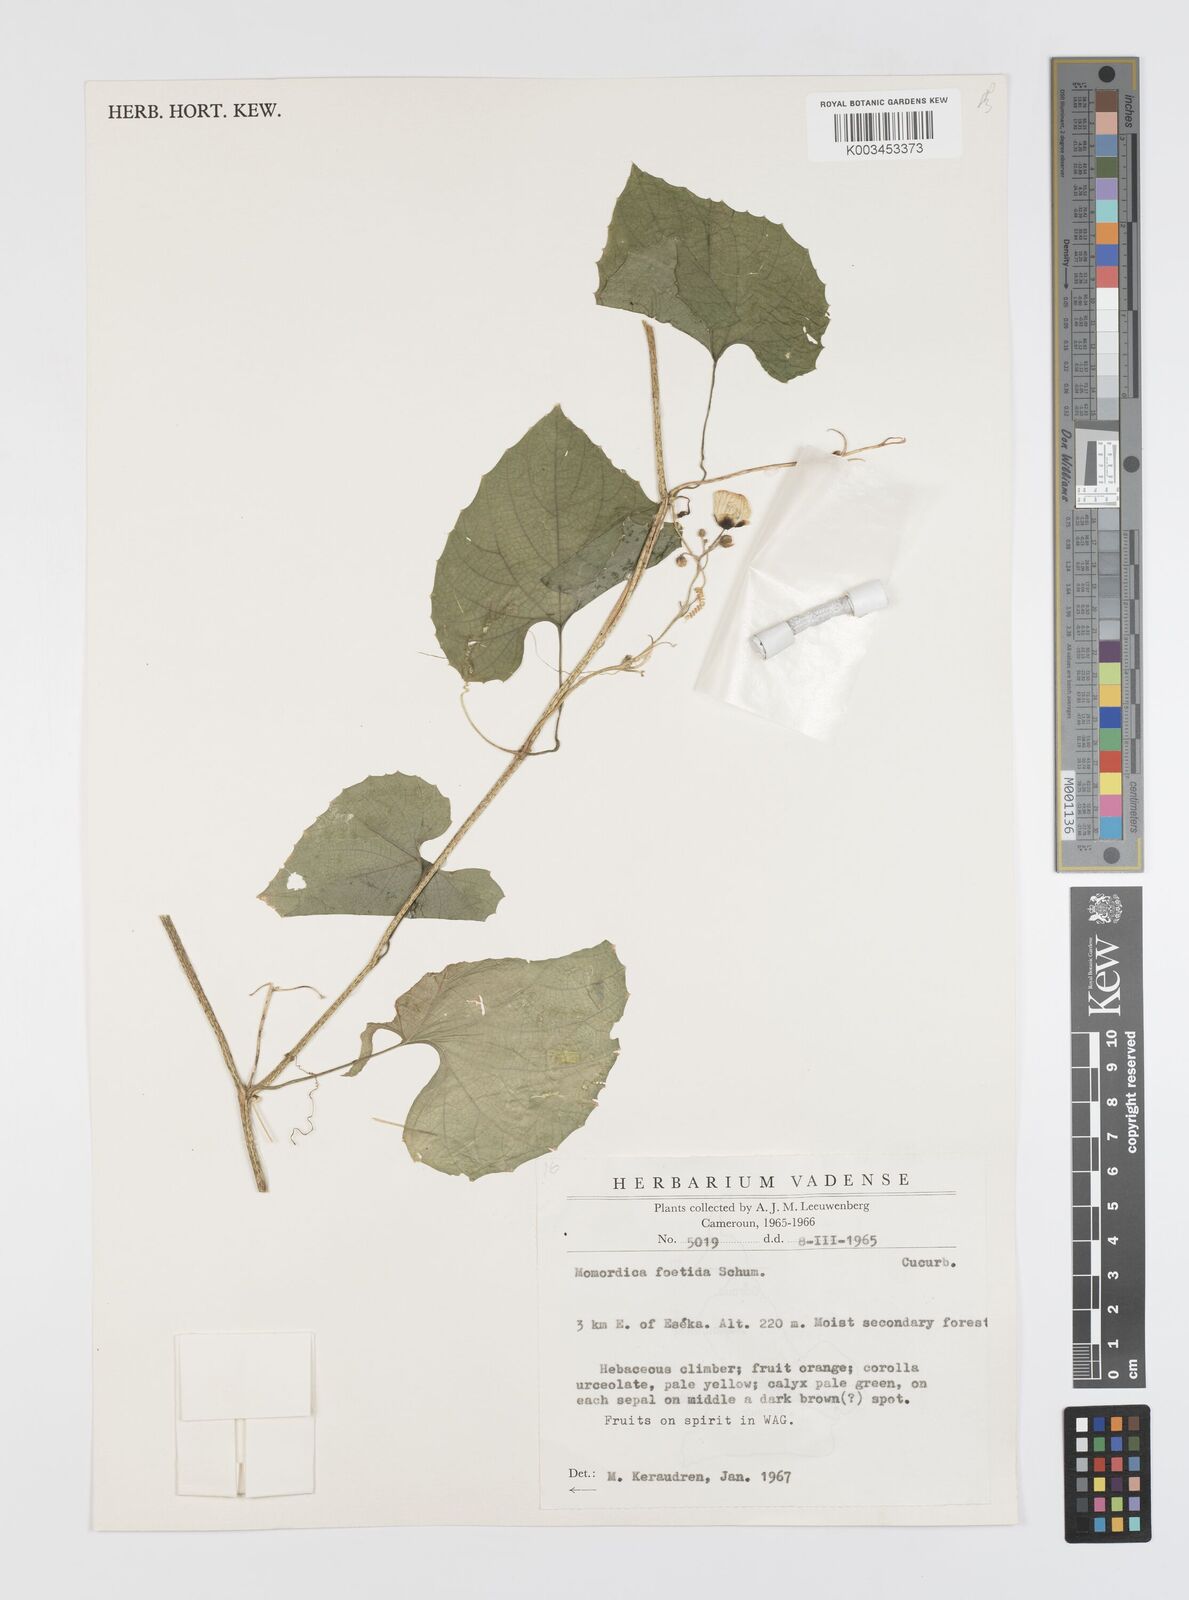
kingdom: Plantae
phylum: Tracheophyta
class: Magnoliopsida
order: Cucurbitales
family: Cucurbitaceae
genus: Momordica
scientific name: Momordica foetida
